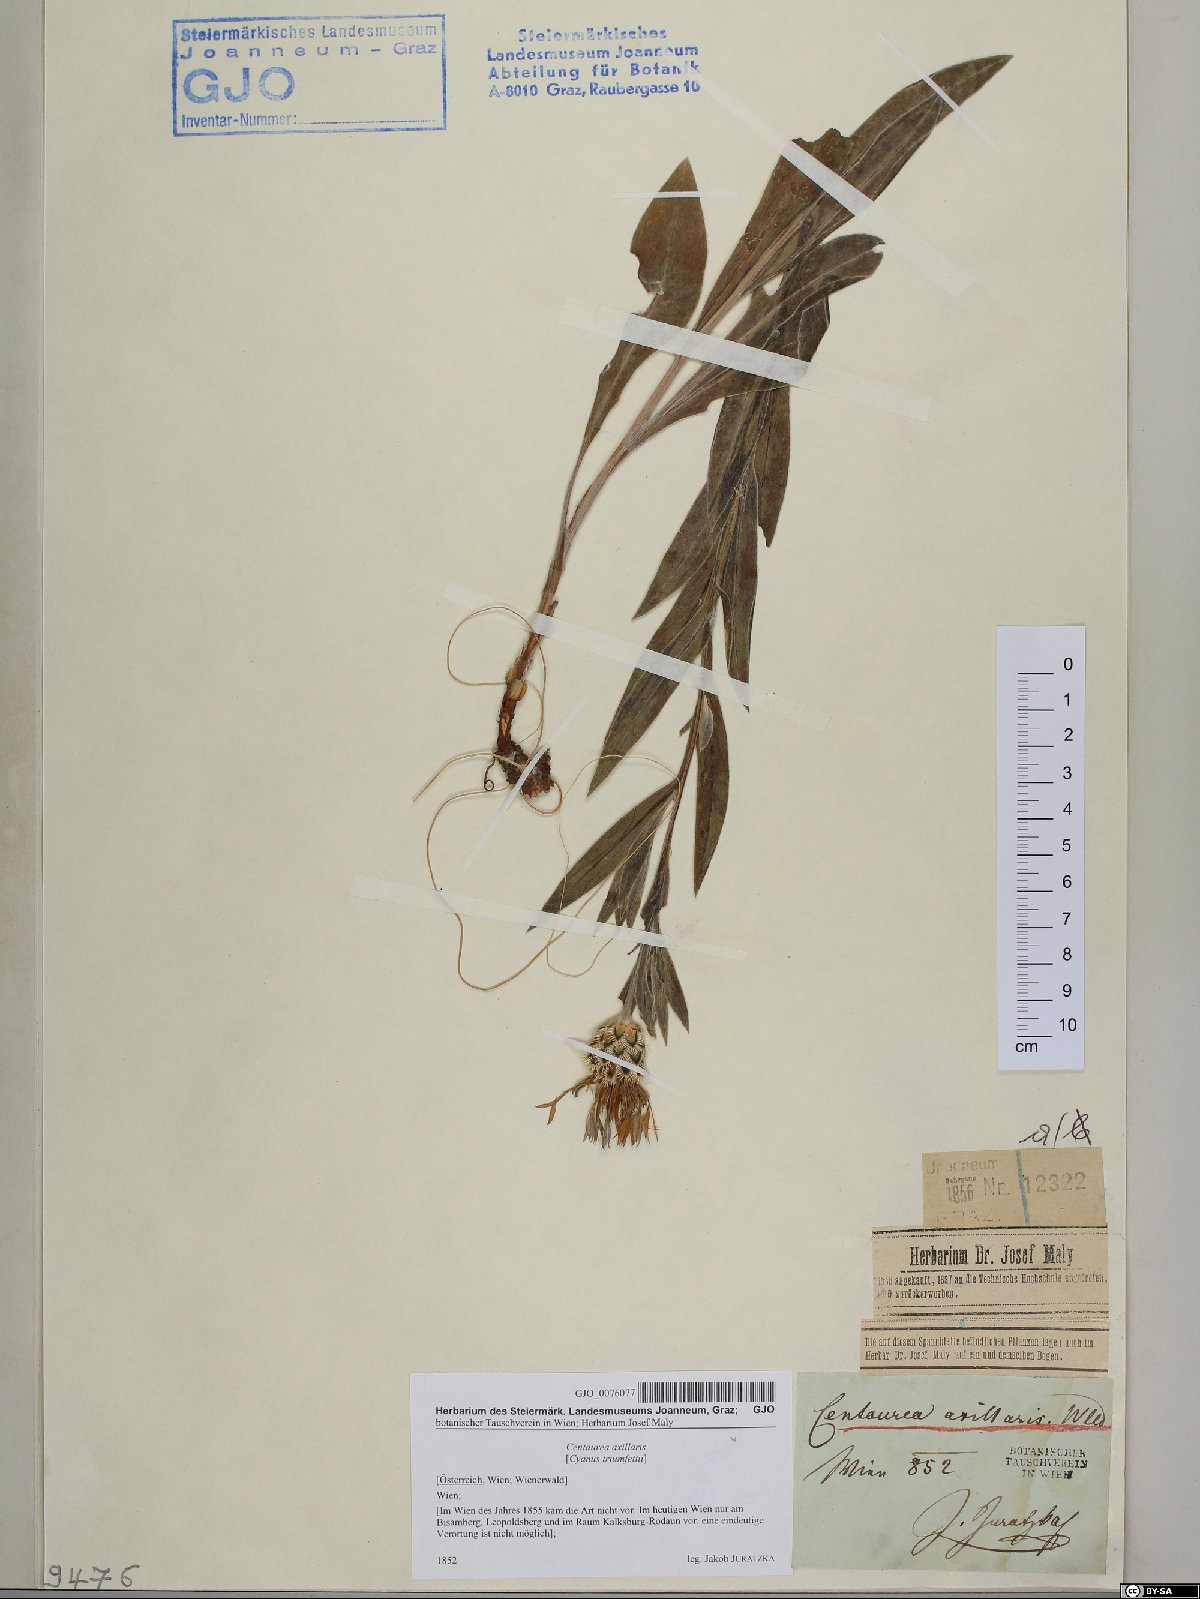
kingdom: Plantae
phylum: Tracheophyta
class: Magnoliopsida
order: Asterales
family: Asteraceae
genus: Centaurea
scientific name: Centaurea triumfettii
